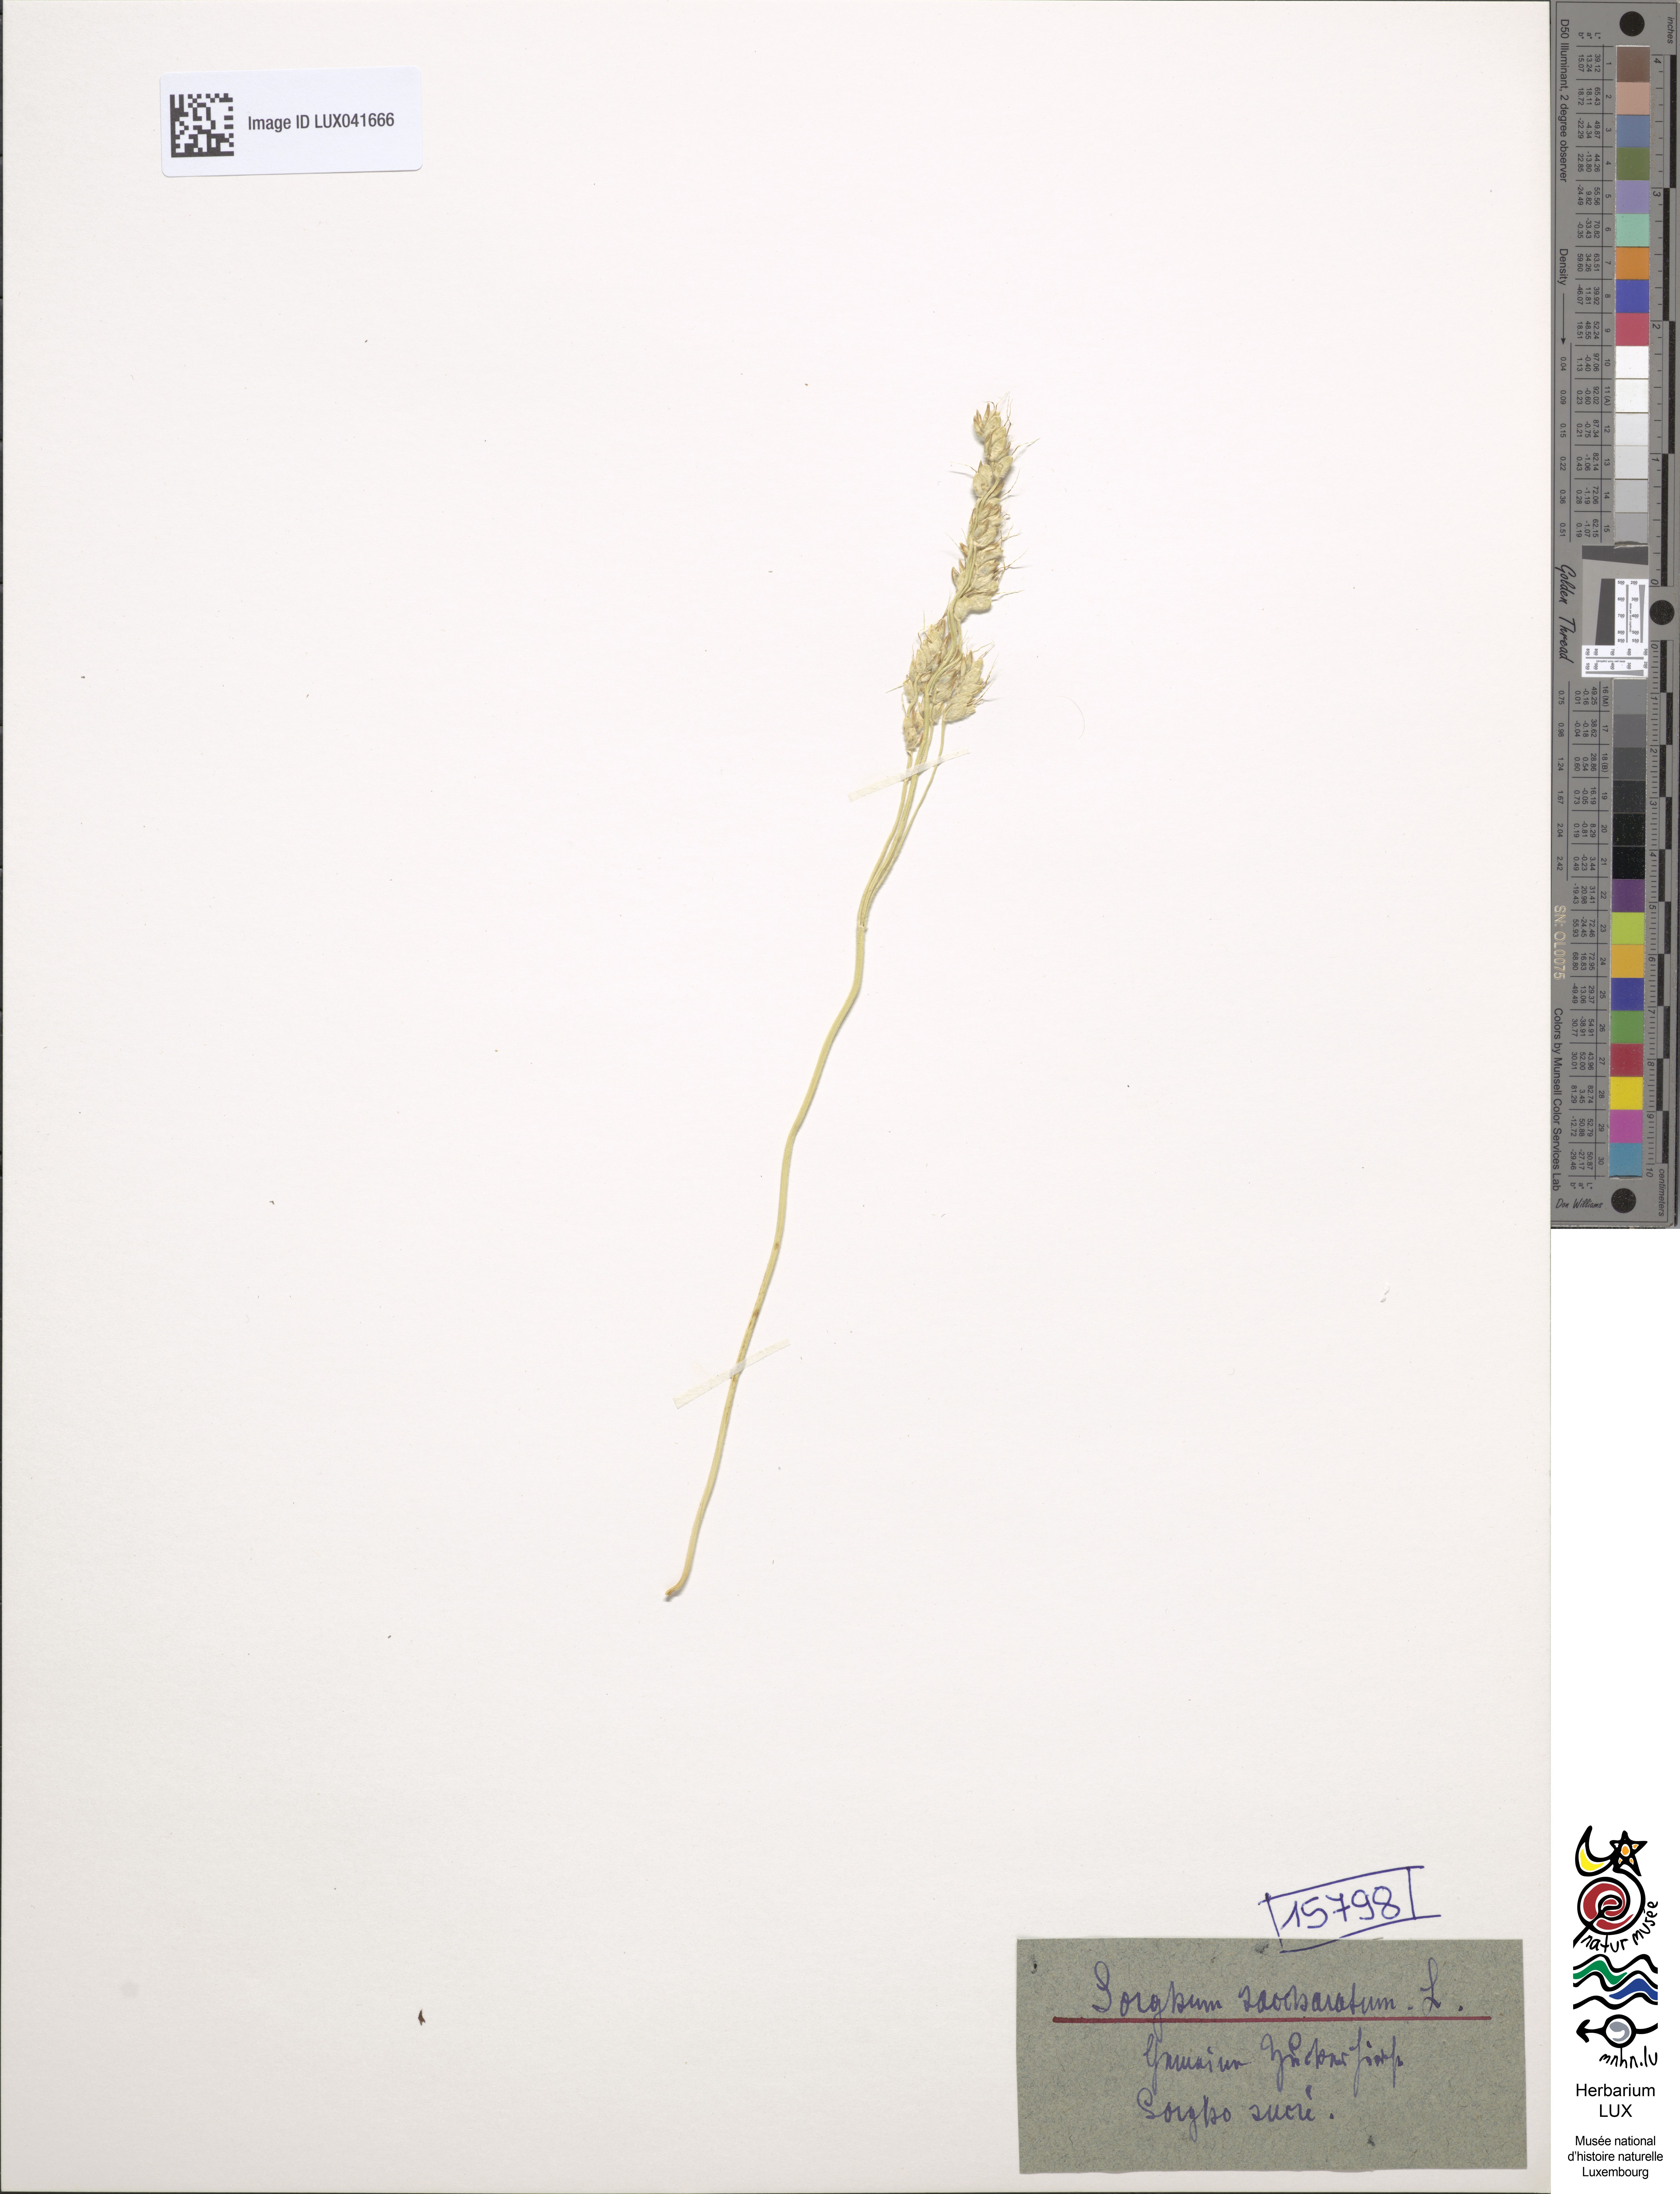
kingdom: Plantae
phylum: Tracheophyta
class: Liliopsida
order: Poales
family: Poaceae
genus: Sorghum
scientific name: Sorghum bicolor
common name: Sorghum
